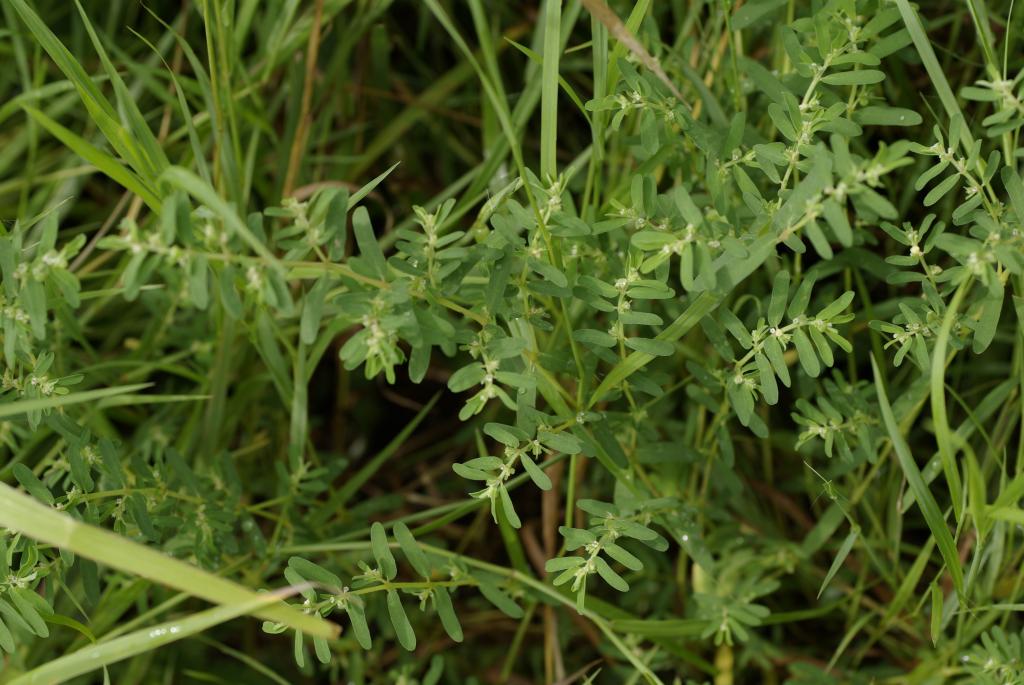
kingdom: Plantae
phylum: Tracheophyta
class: Magnoliopsida
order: Malpighiales
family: Euphorbiaceae
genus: Euphorbia
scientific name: Euphorbia meyeniana
